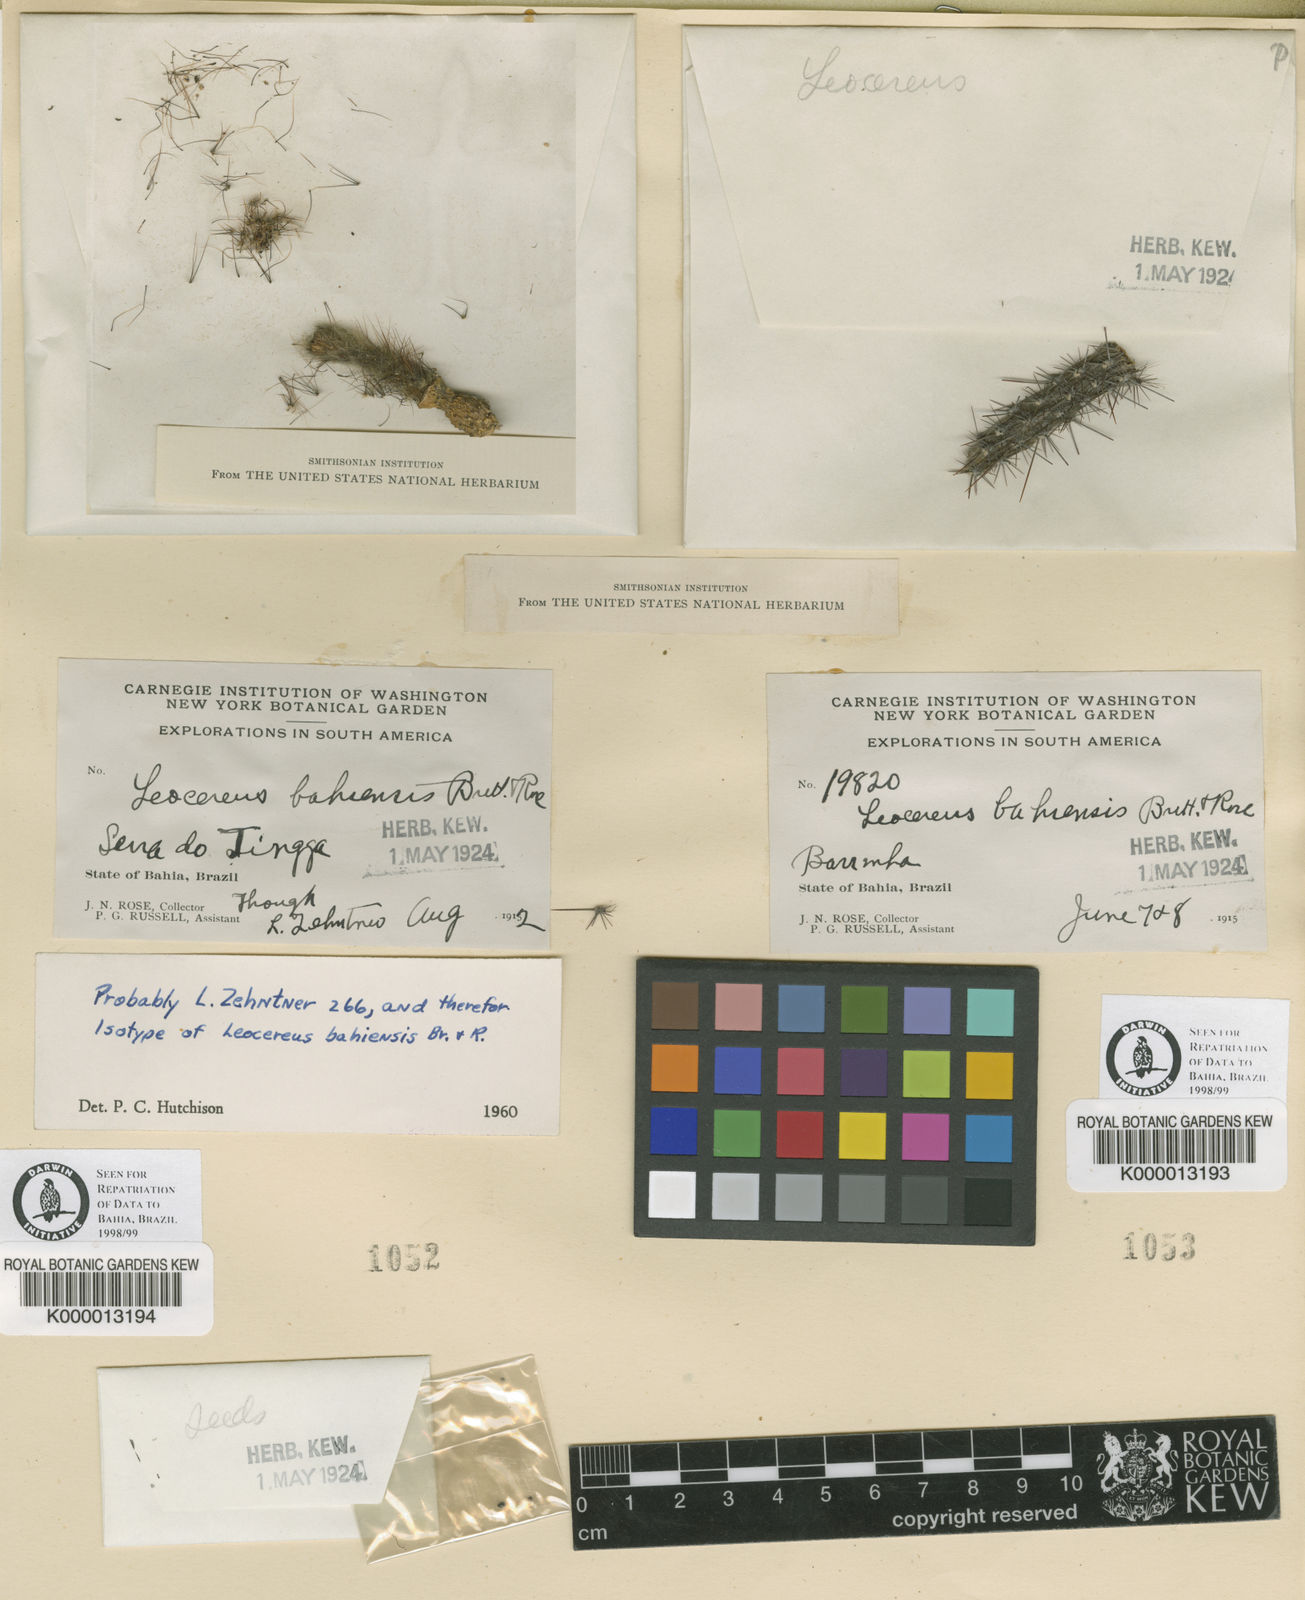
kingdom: Plantae
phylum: Tracheophyta
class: Magnoliopsida
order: Caryophyllales
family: Cactaceae
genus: Leocereus
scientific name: Leocereus bahiensis
